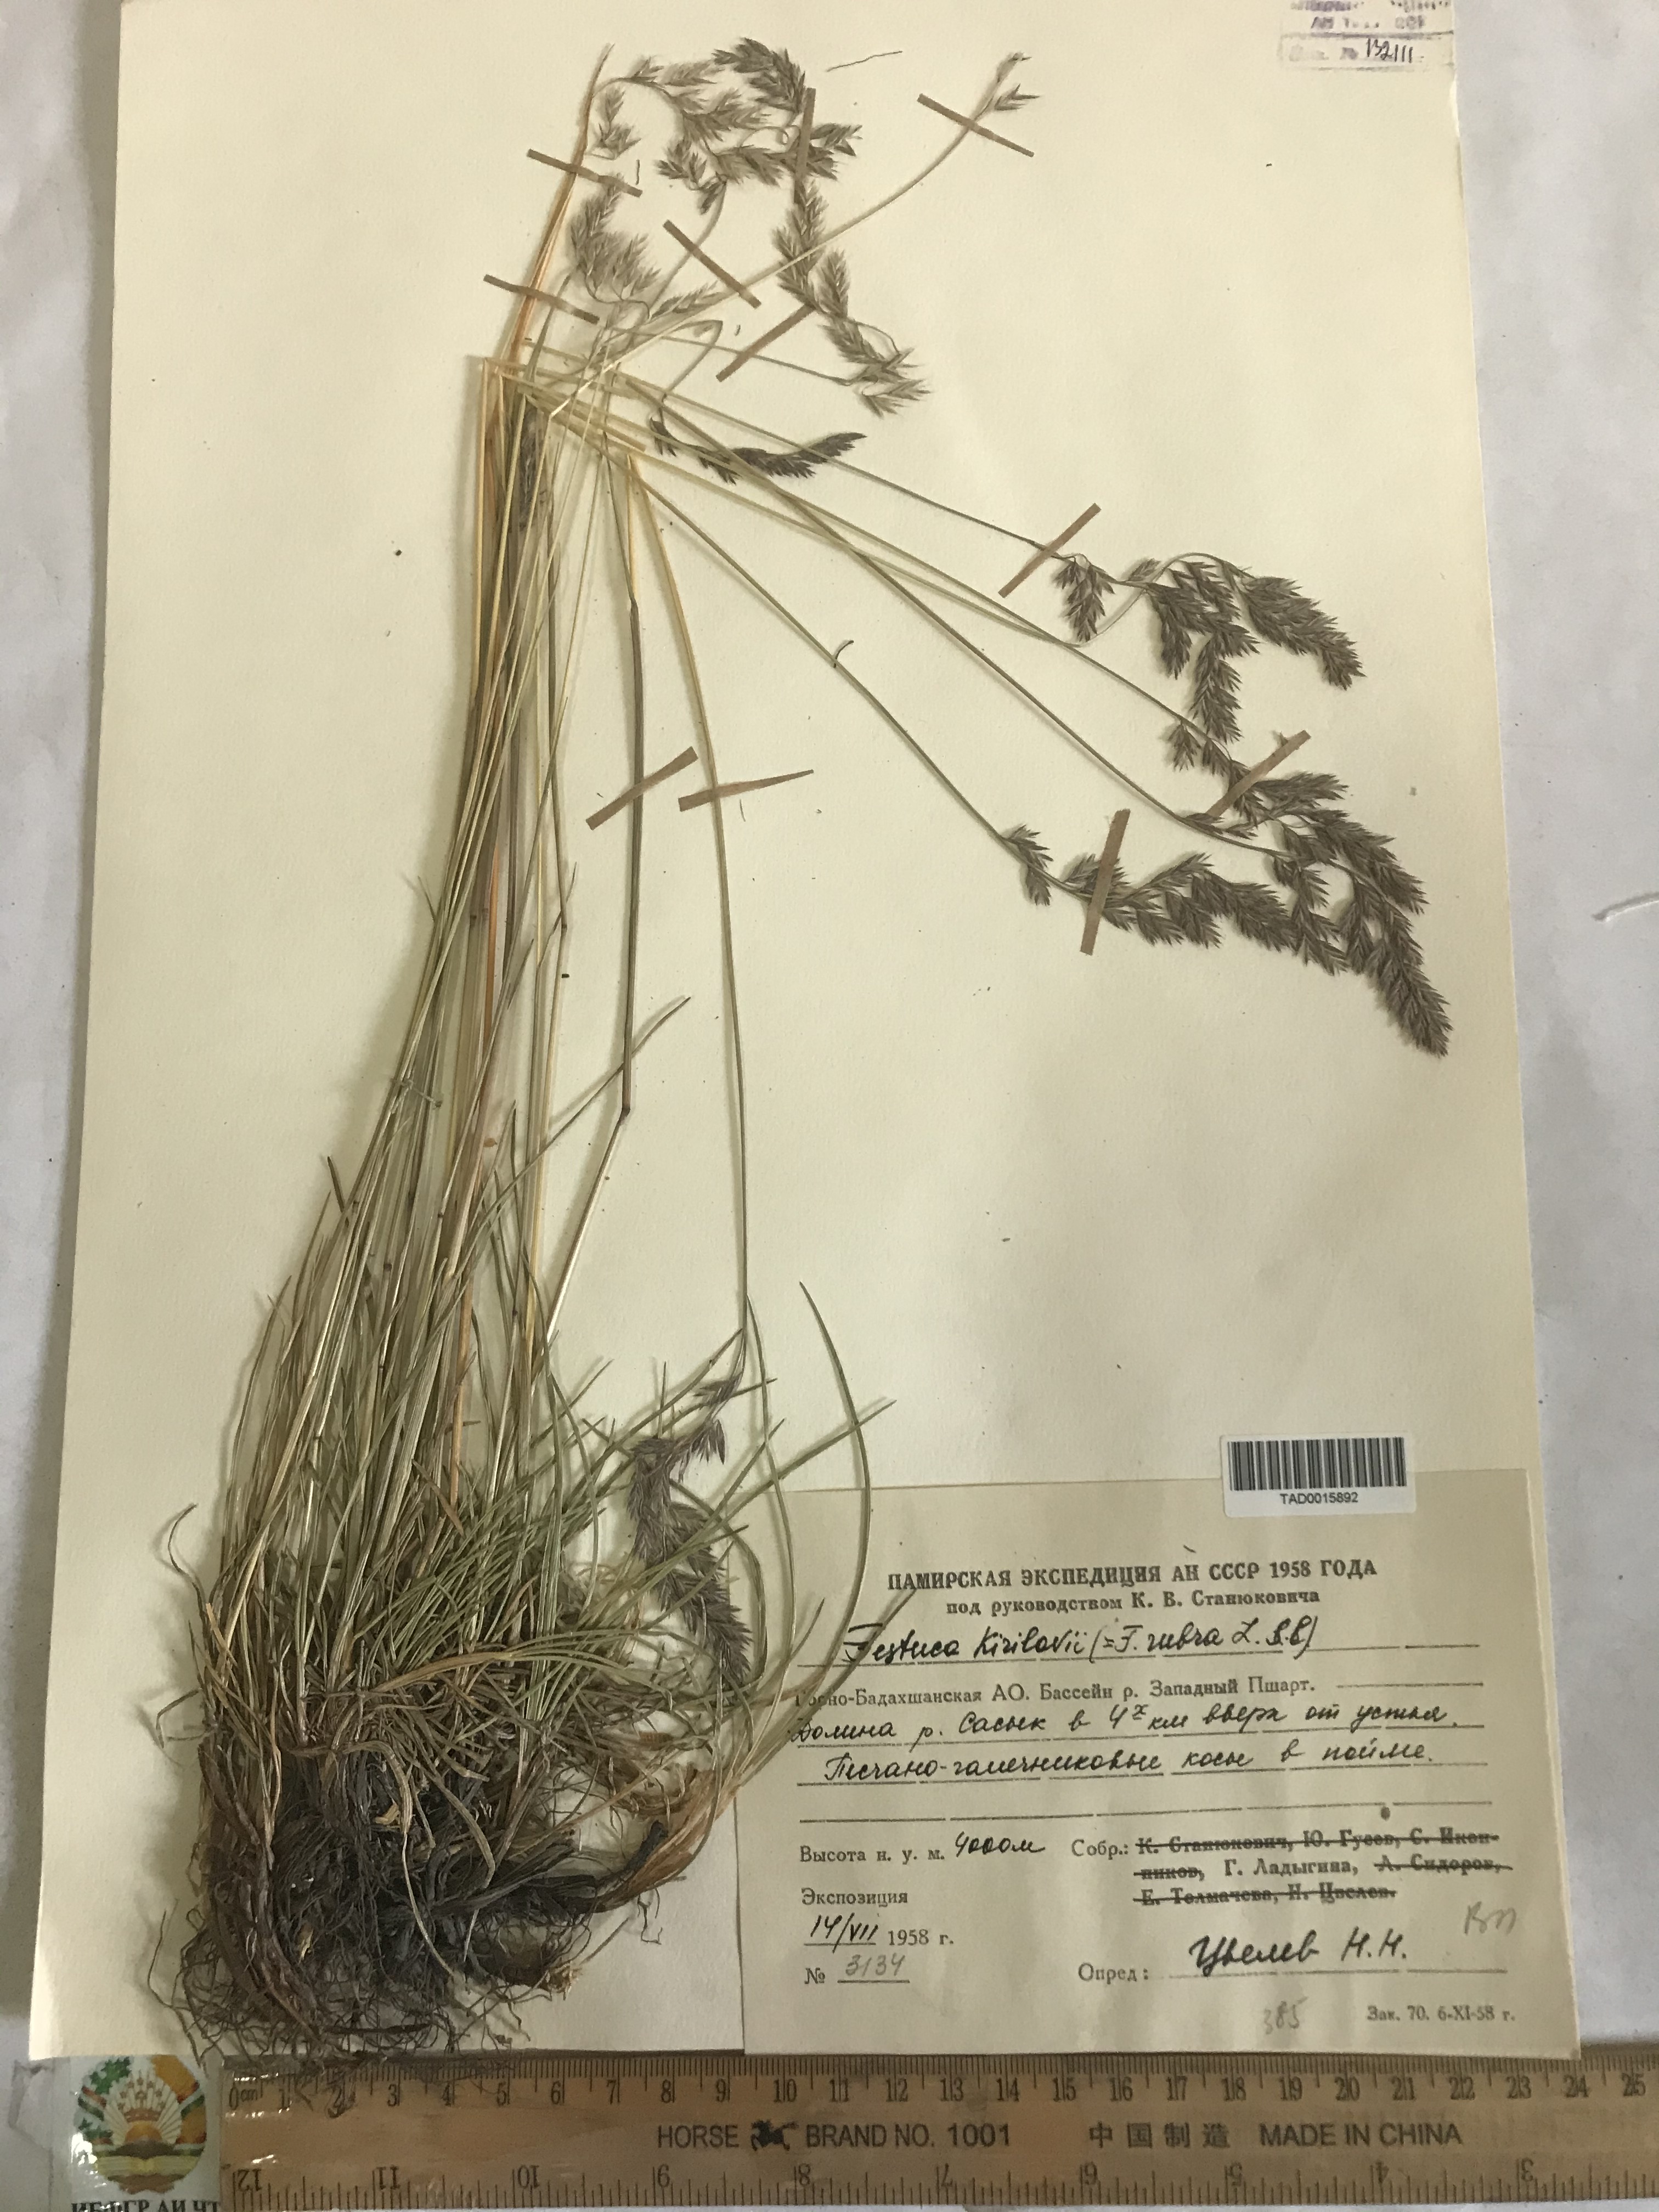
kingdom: Plantae
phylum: Tracheophyta
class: Liliopsida
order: Poales
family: Poaceae
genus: Festuca
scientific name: Festuca rubra
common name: Red fescue
